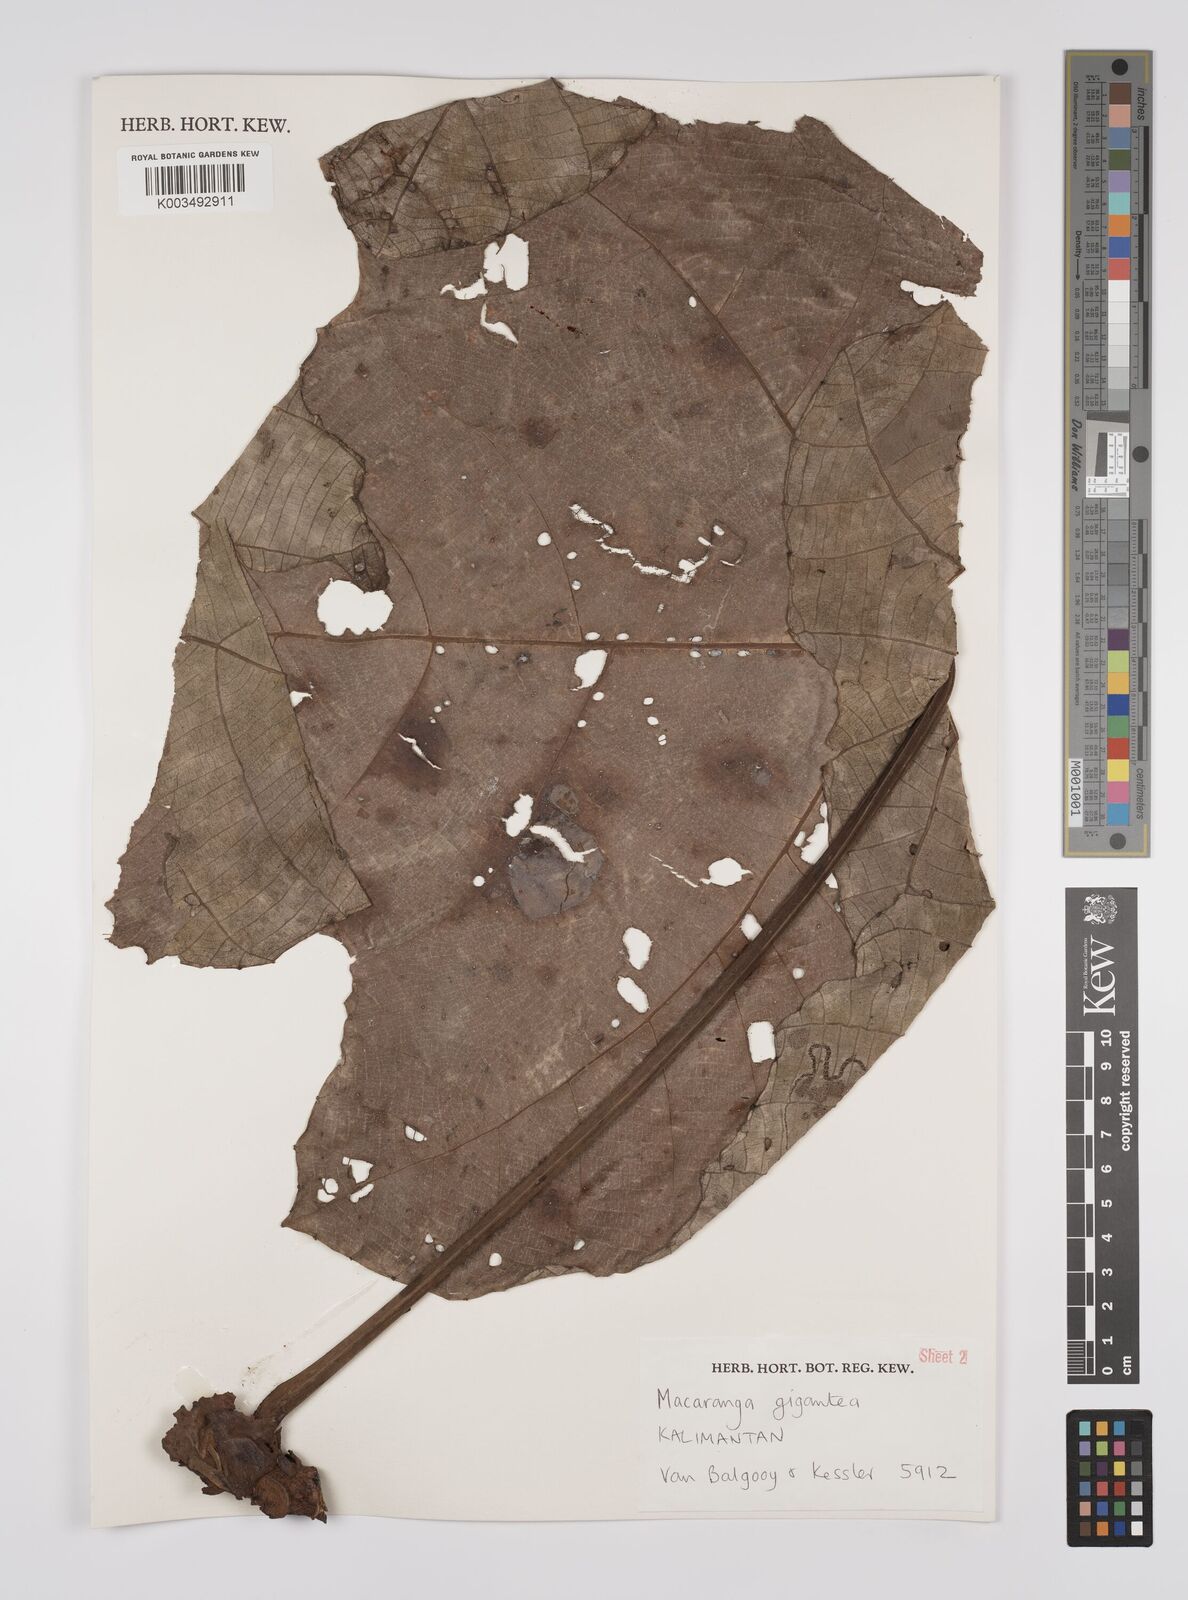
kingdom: Plantae
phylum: Tracheophyta
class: Magnoliopsida
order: Malpighiales
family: Euphorbiaceae
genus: Macaranga
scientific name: Macaranga gigantea
